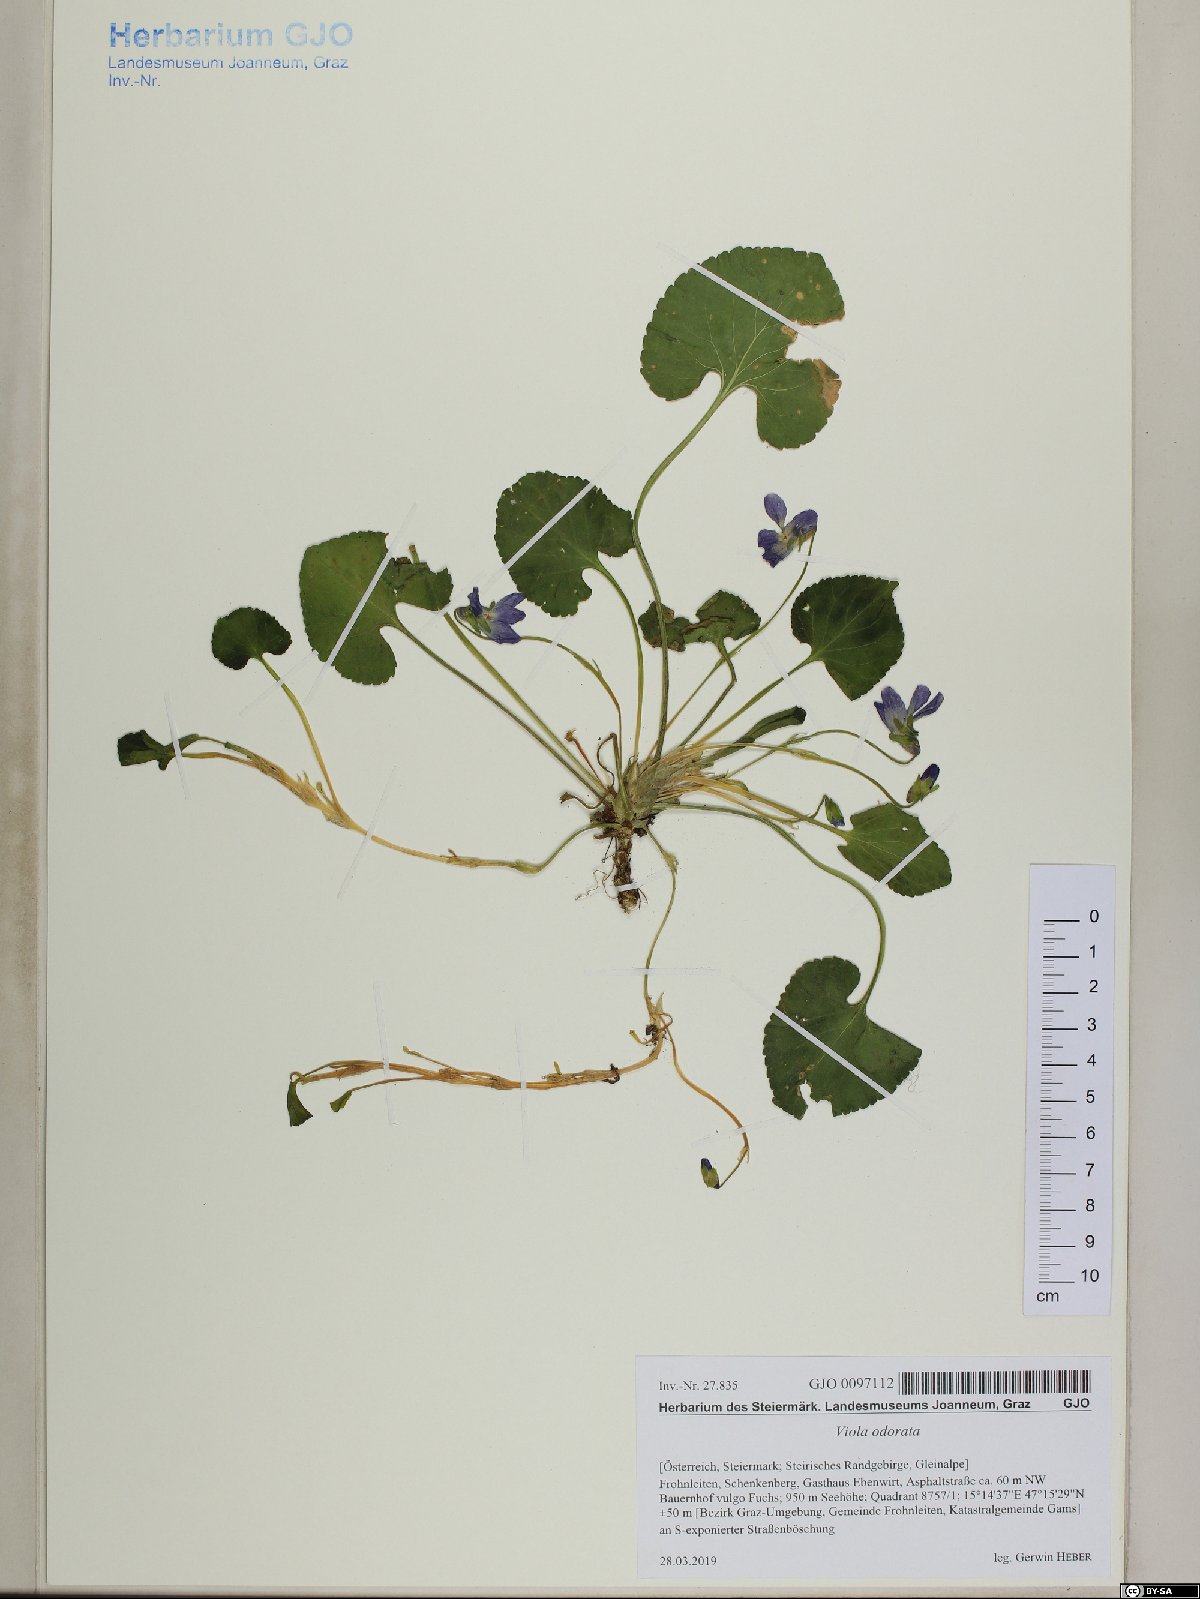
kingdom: Plantae
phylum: Tracheophyta
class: Magnoliopsida
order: Malpighiales
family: Violaceae
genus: Viola
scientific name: Viola odorata
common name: Sweet violet
